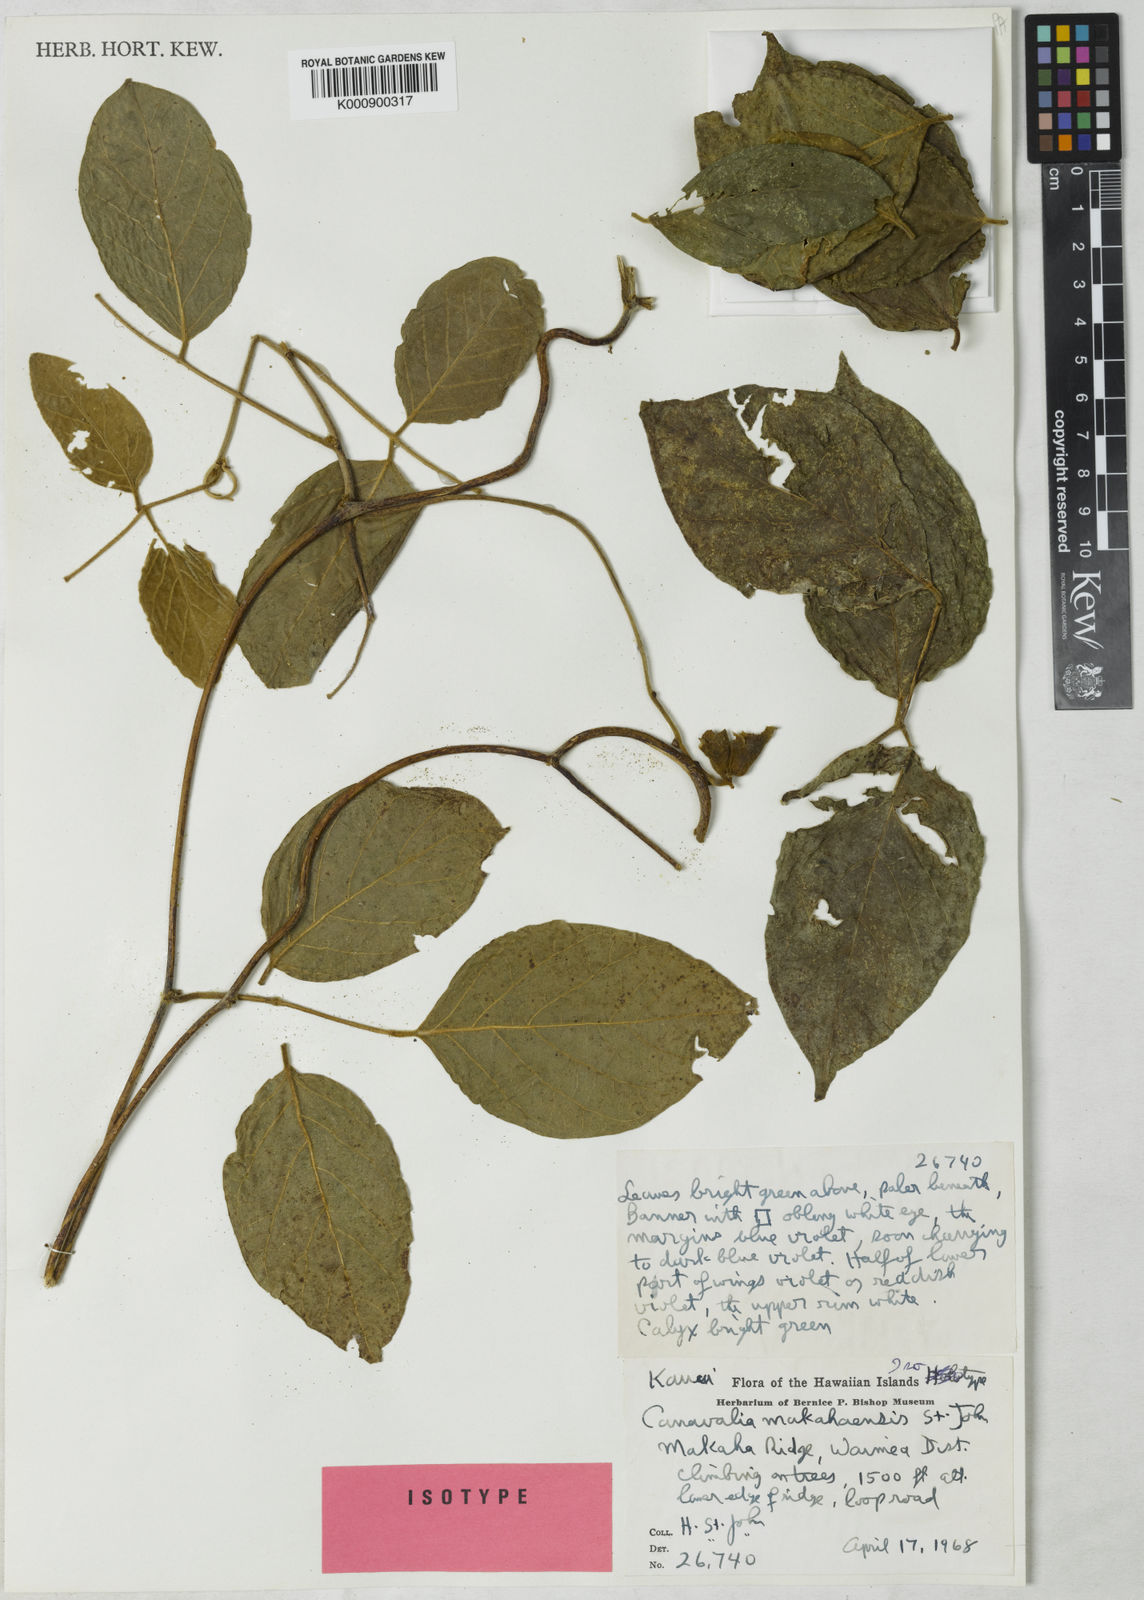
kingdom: Plantae
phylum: Tracheophyta
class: Magnoliopsida
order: Fabales
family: Fabaceae
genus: Canavalia
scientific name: Canavalia napaliensis
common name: Jack-bean
